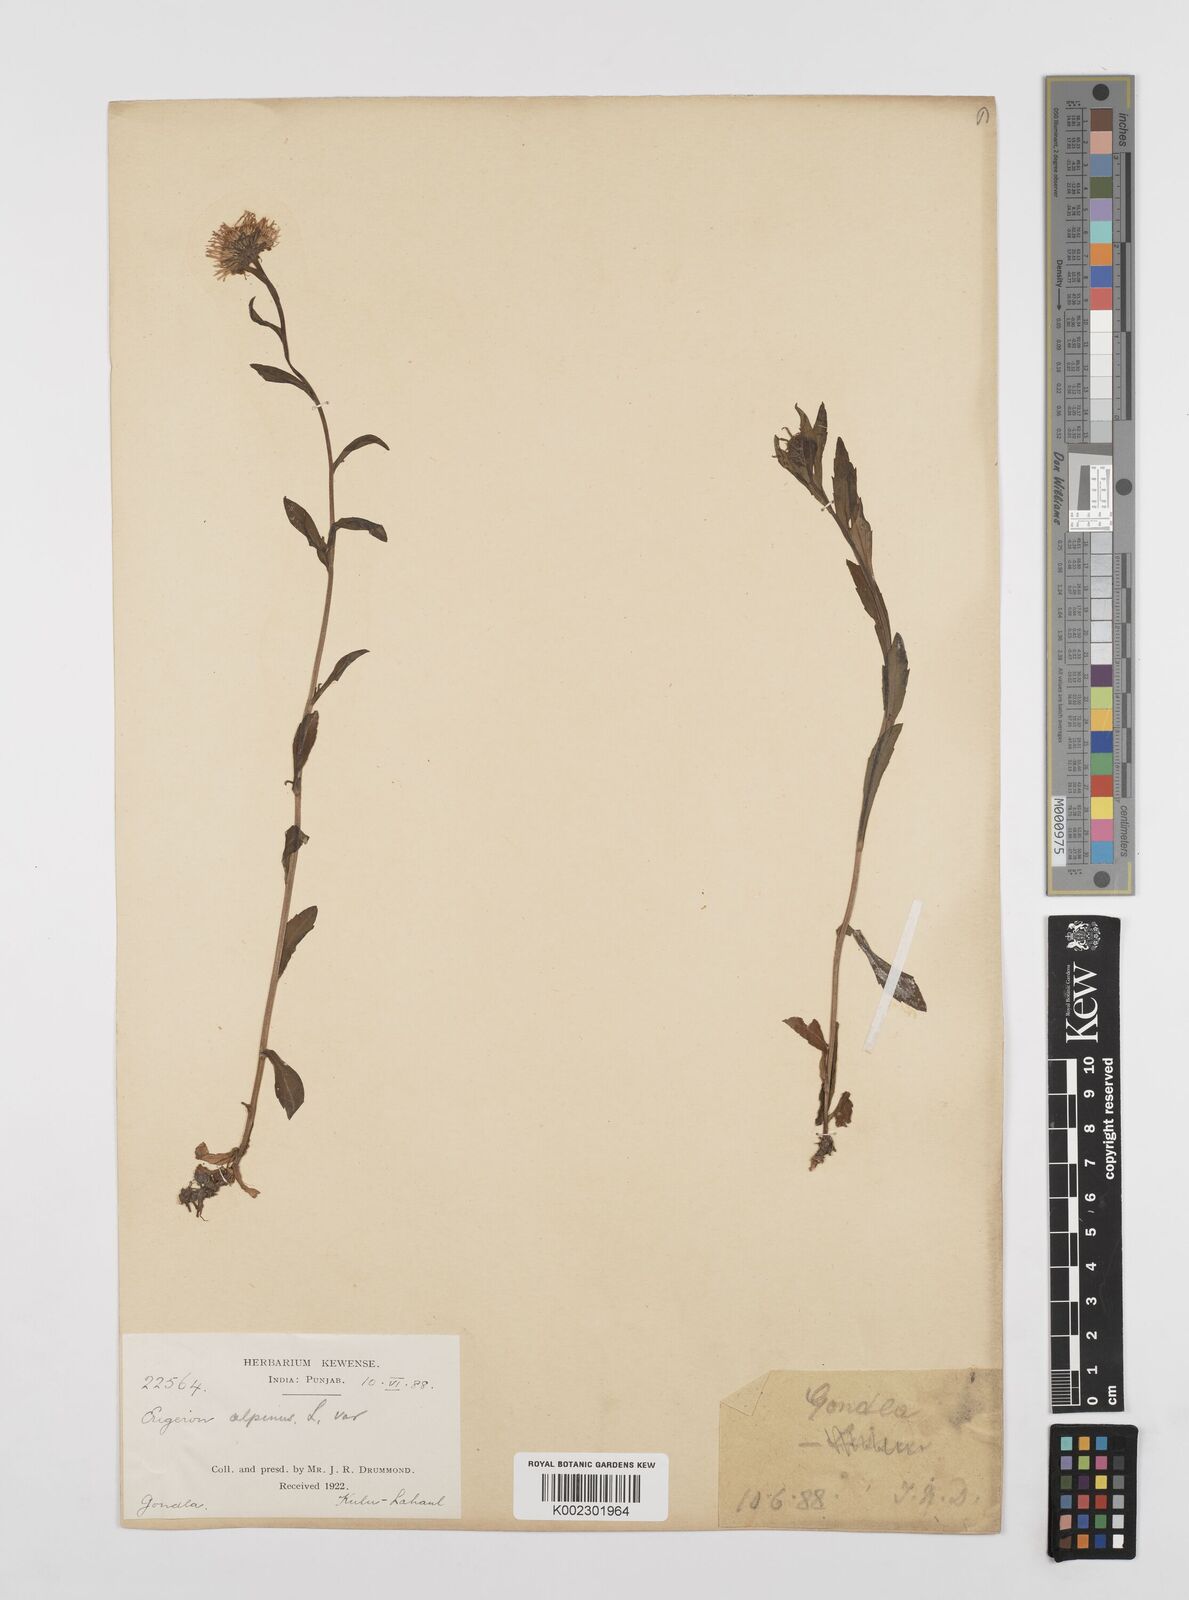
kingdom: Plantae
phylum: Tracheophyta
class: Magnoliopsida
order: Asterales
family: Asteraceae
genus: Erigeron
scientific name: Erigeron alpinus
